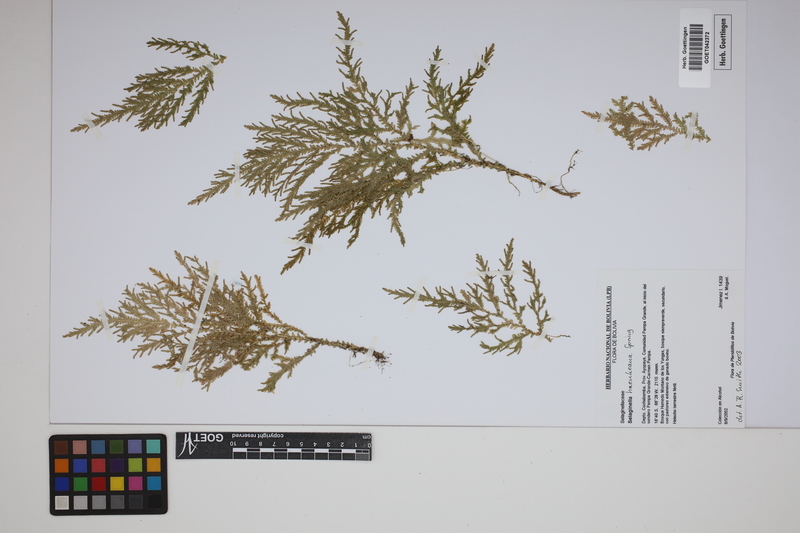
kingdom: Plantae
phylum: Tracheophyta
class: Lycopodiopsida
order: Selaginellales
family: Selaginellaceae
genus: Selaginella
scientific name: Selaginella haenkeana
